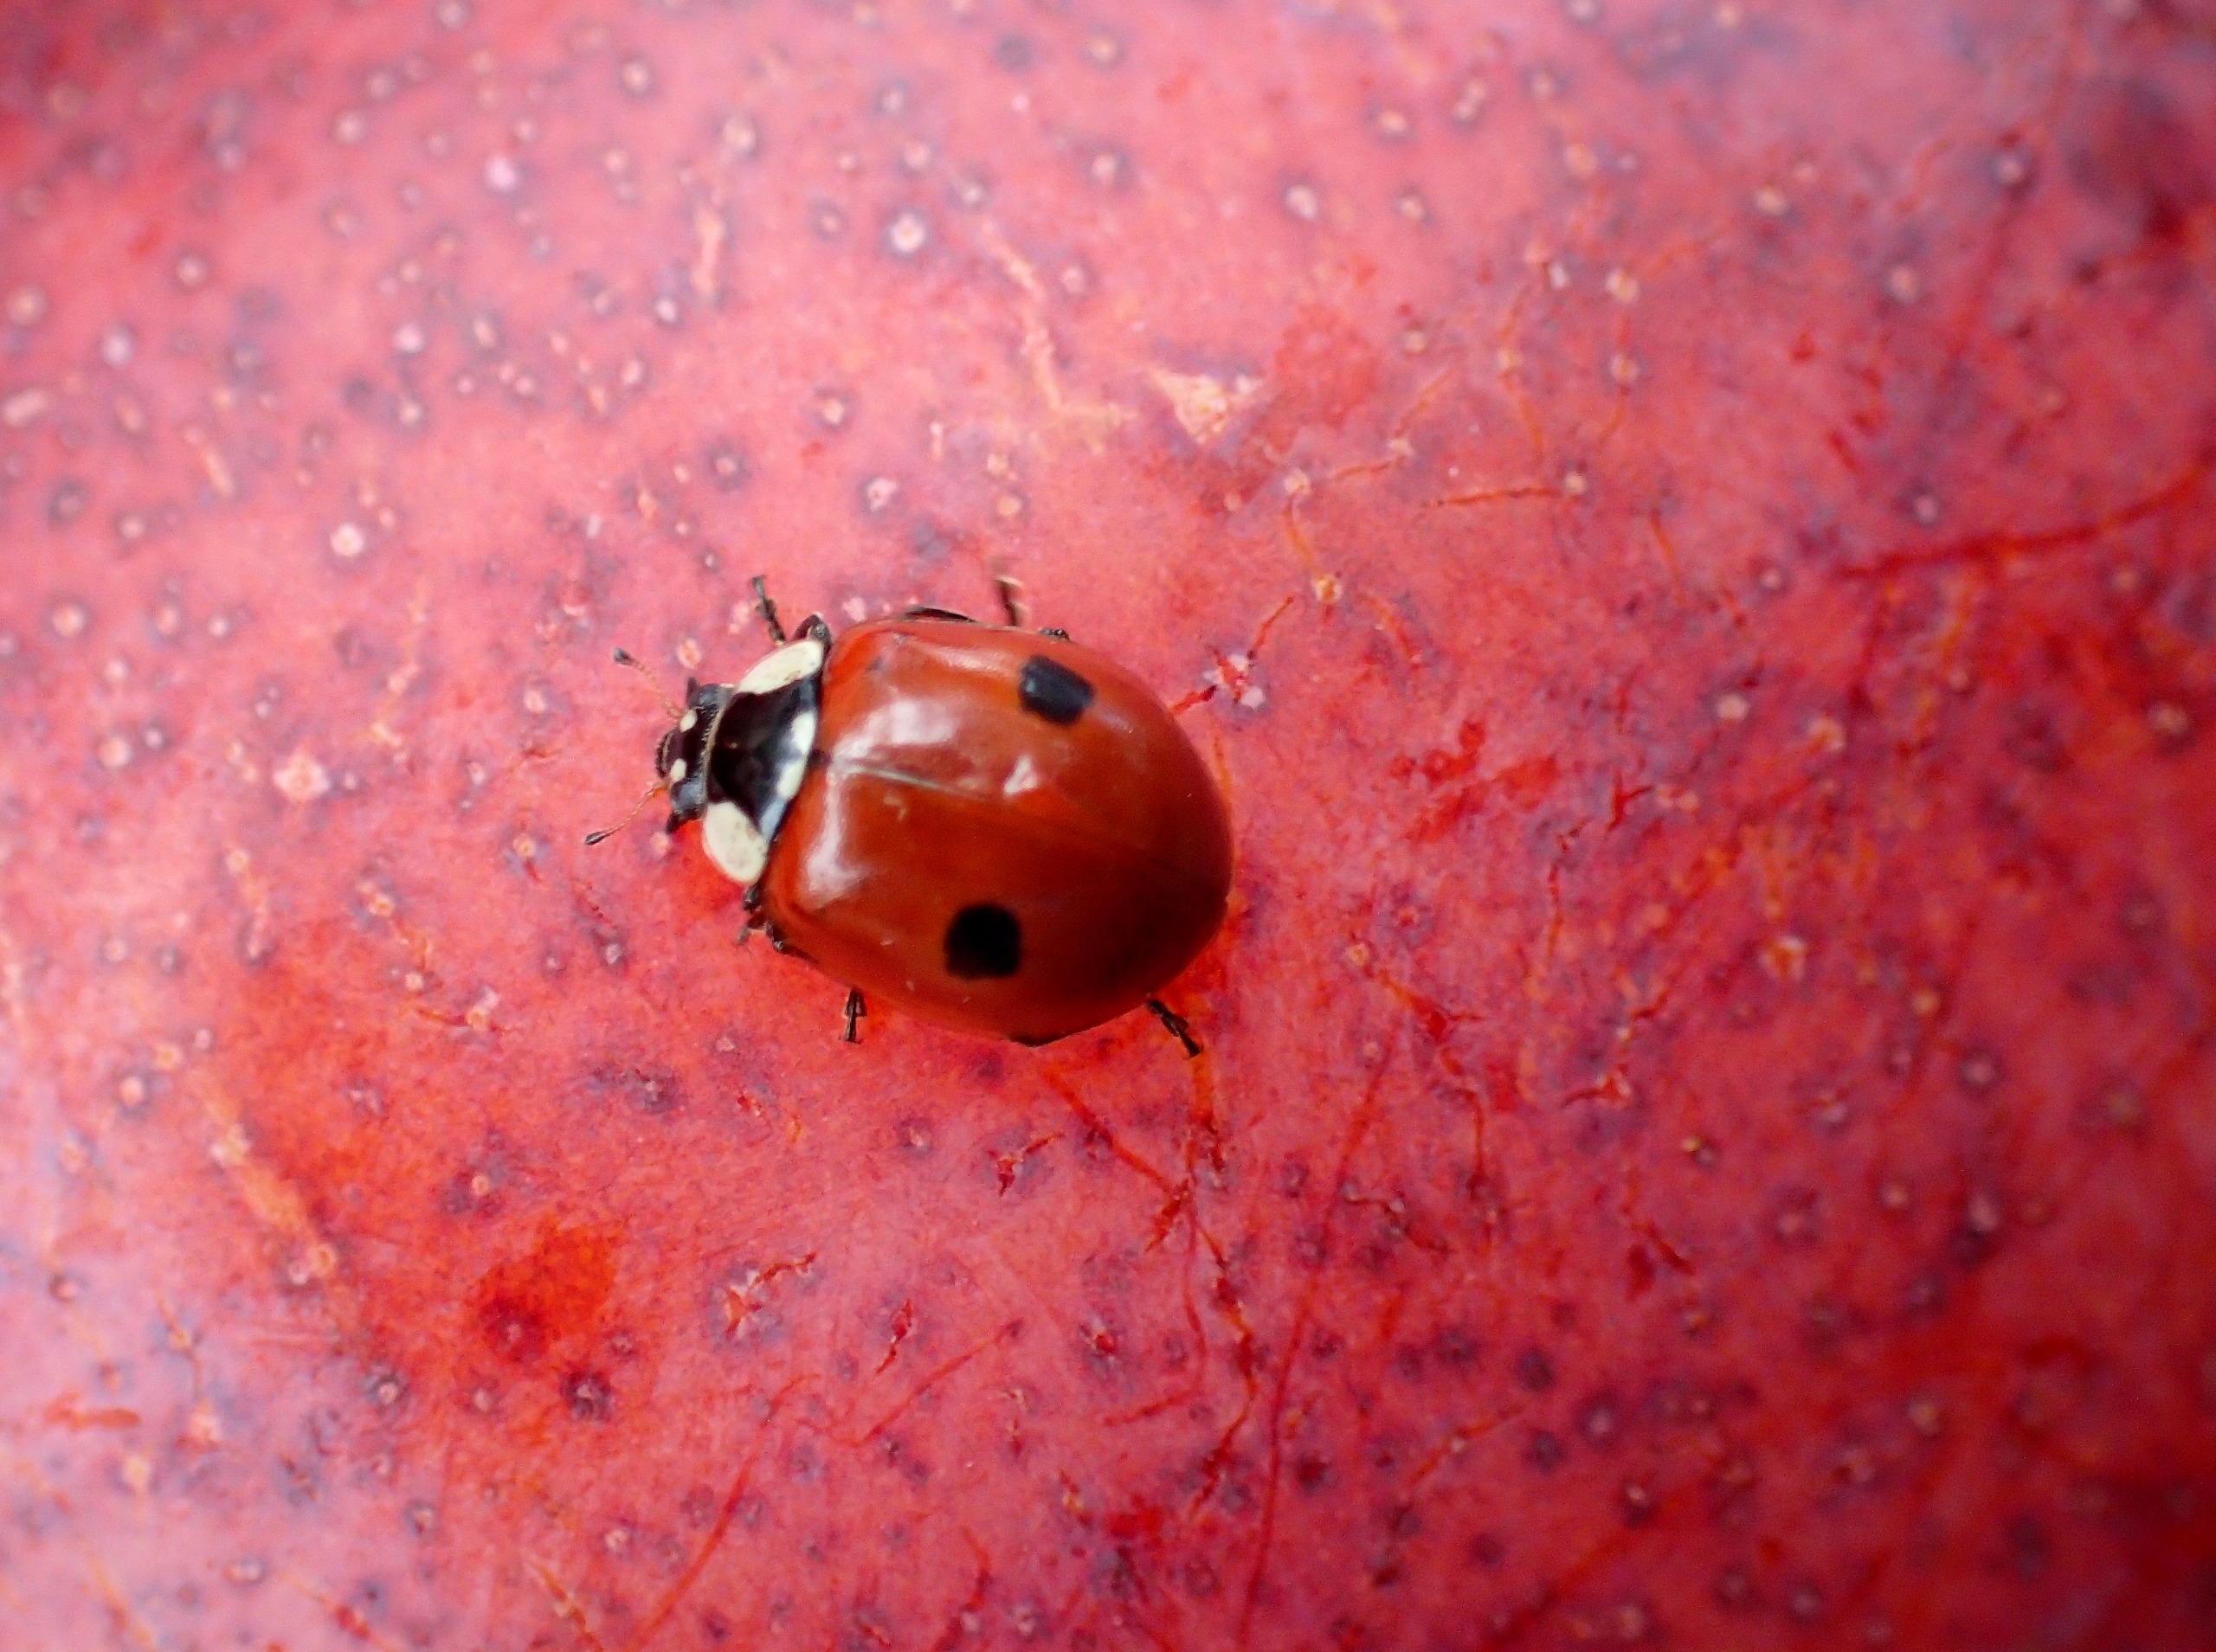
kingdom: Animalia
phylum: Arthropoda
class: Insecta
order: Coleoptera
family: Coccinellidae
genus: Adalia
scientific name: Adalia bipunctata
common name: Toplettet mariehøne
